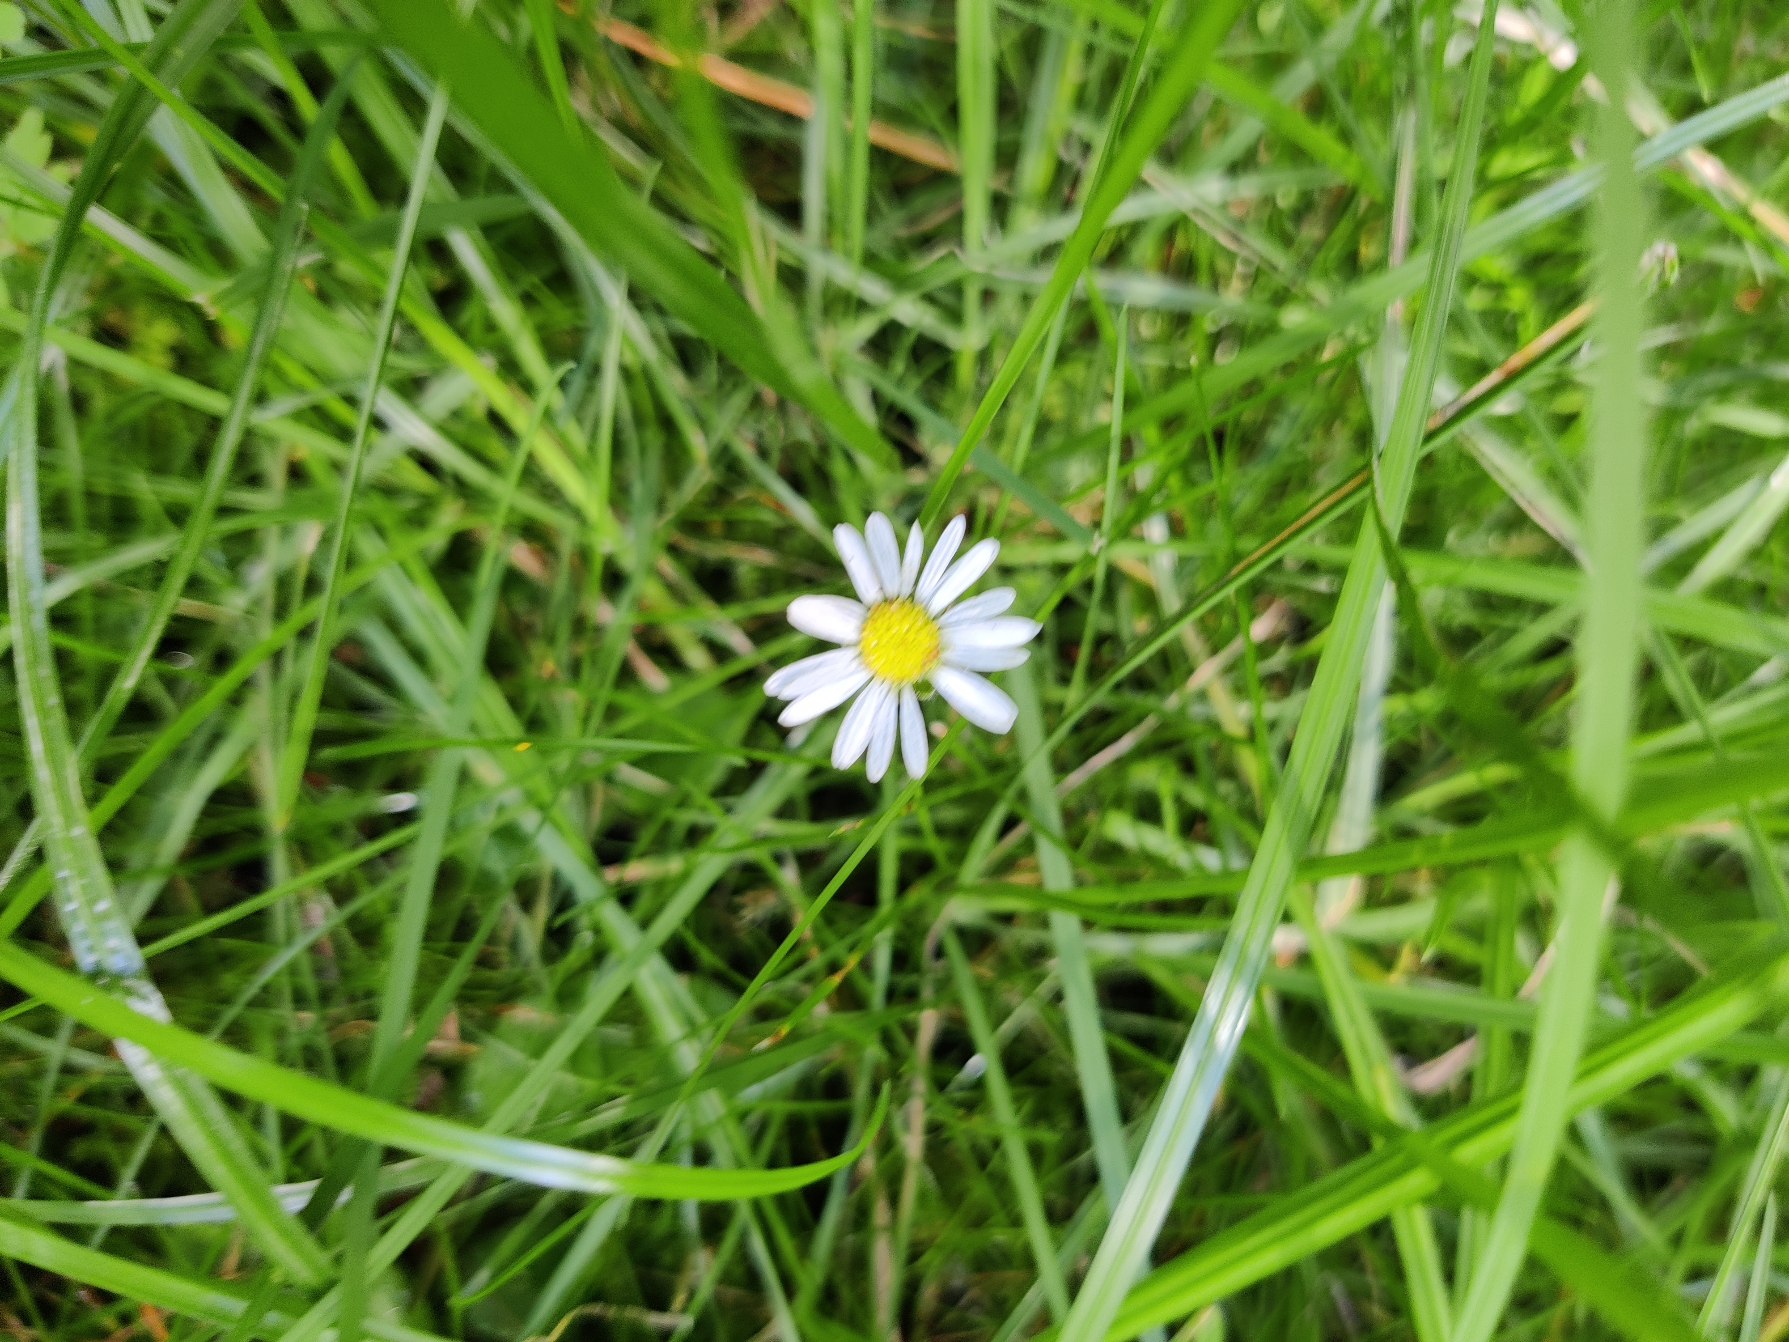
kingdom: Plantae
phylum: Tracheophyta
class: Magnoliopsida
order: Asterales
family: Asteraceae
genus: Bellis
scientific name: Bellis perennis
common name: Tusindfryd
